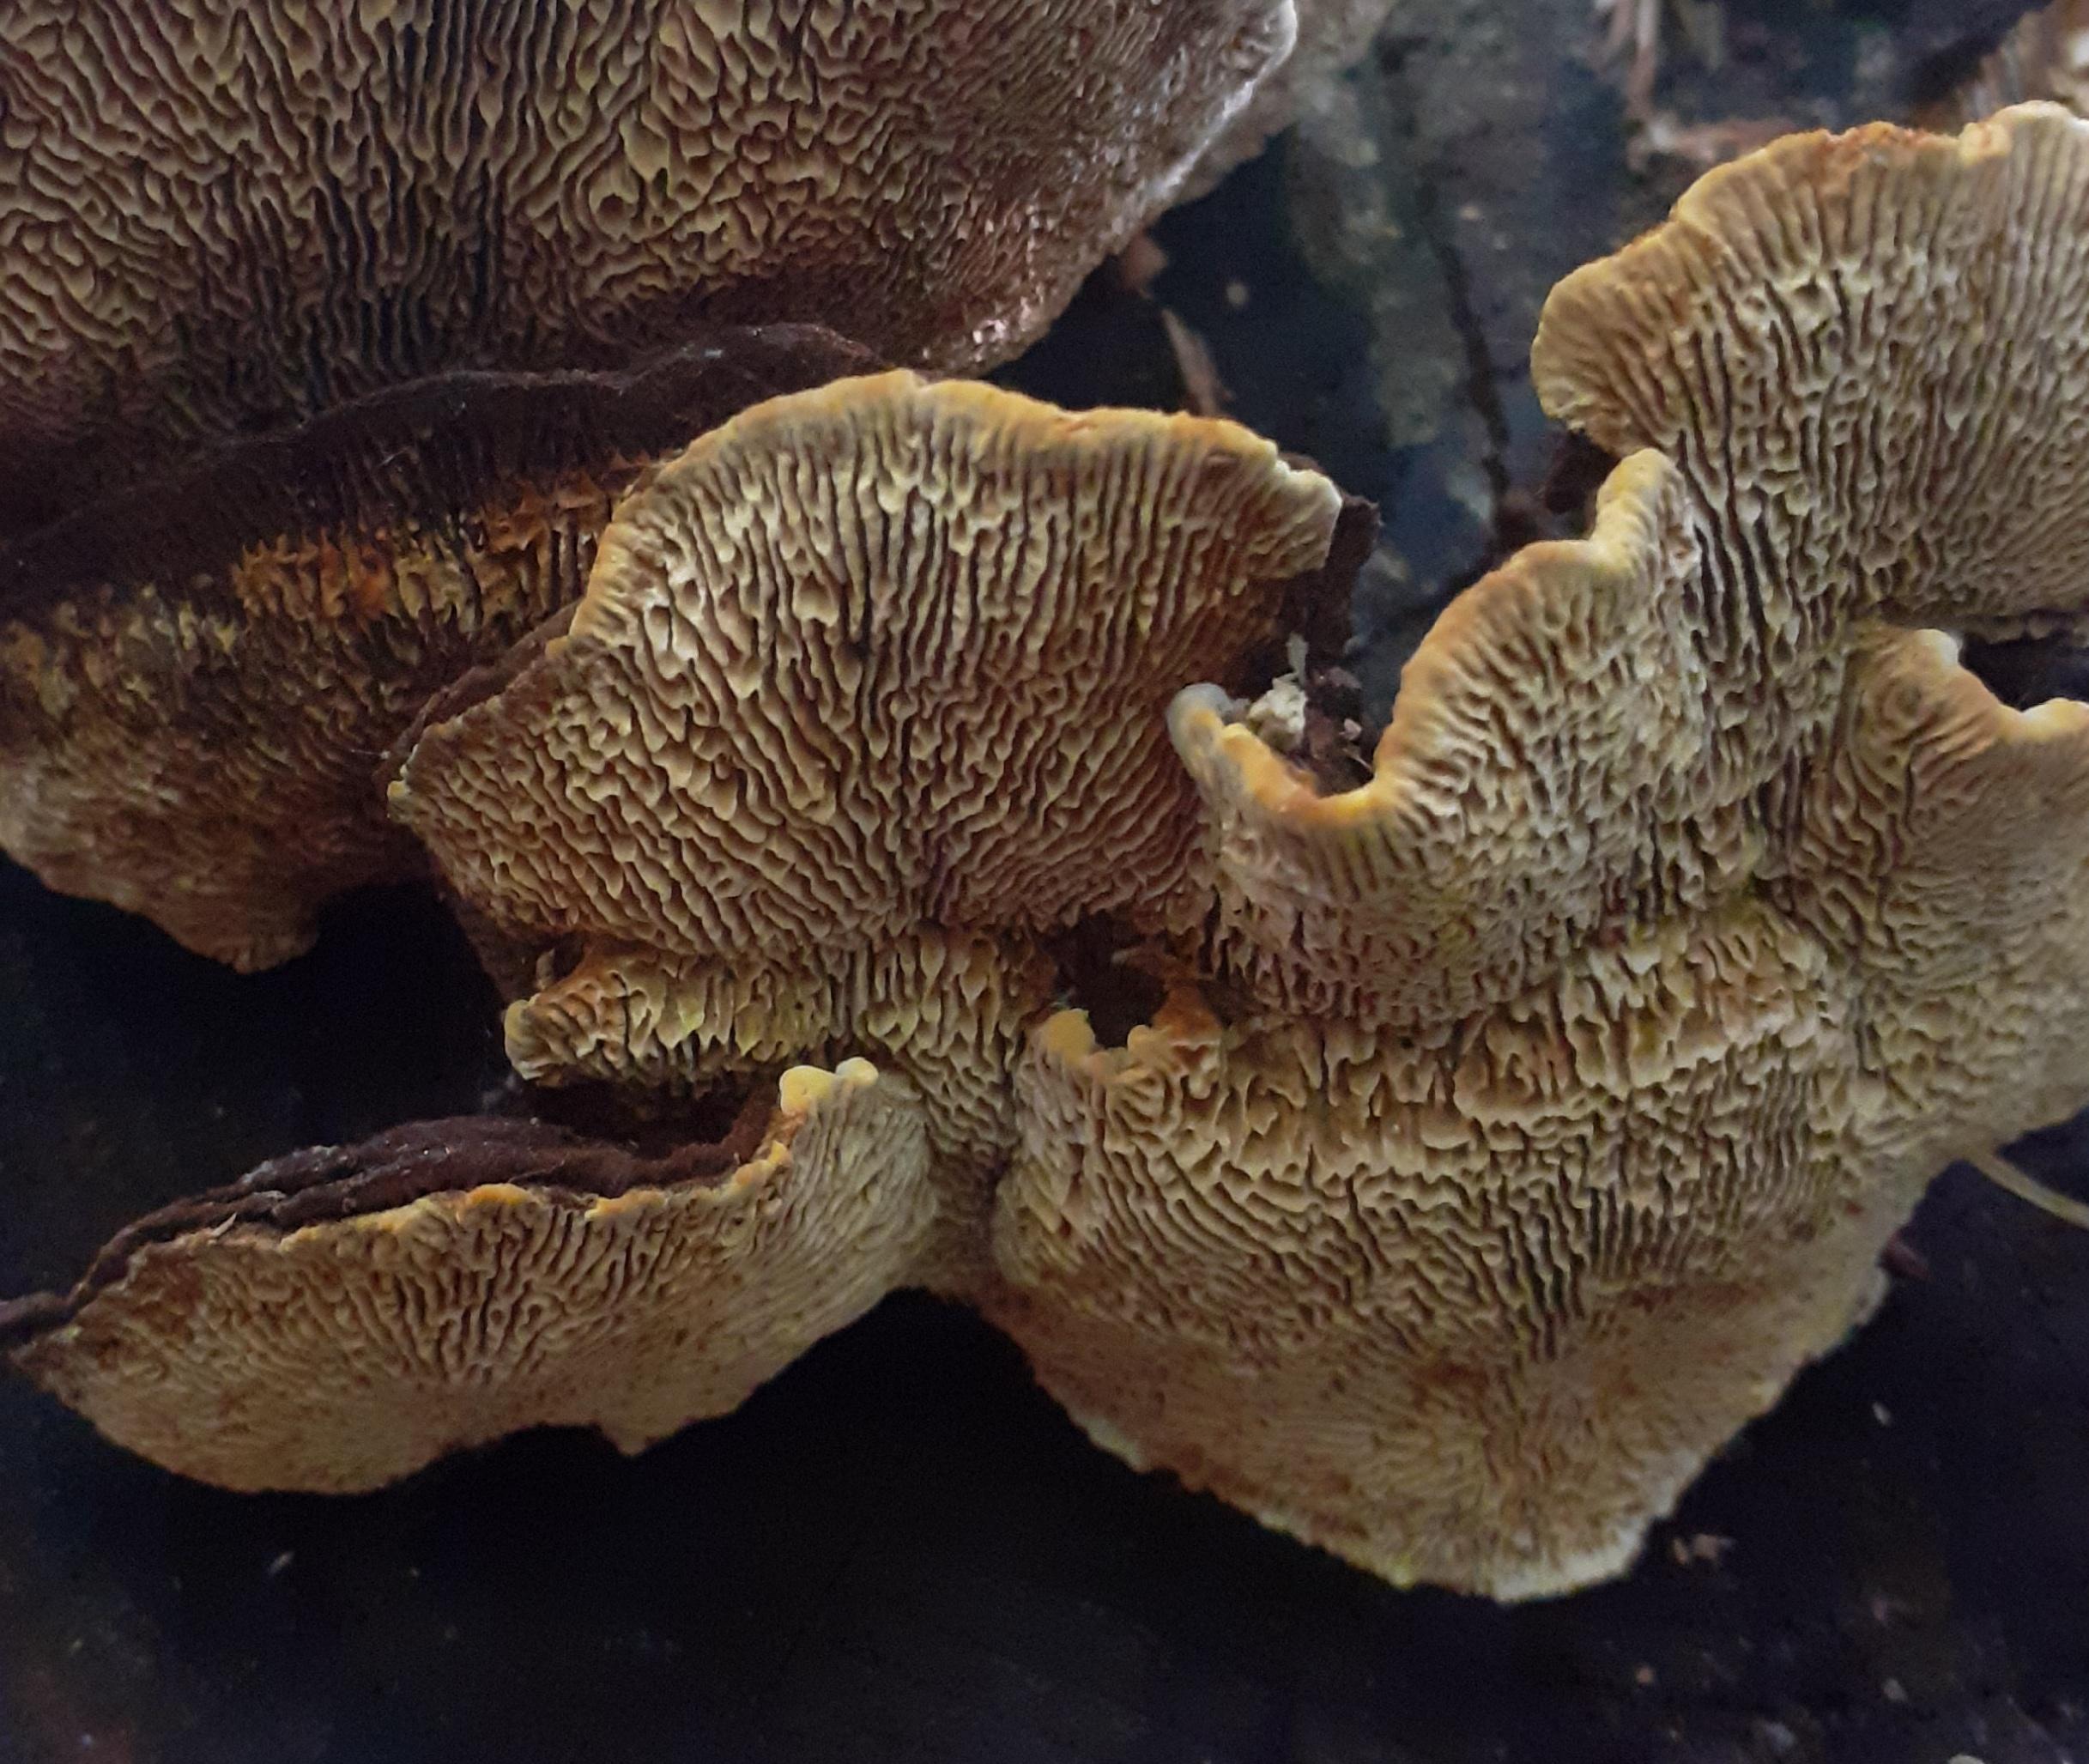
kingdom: Fungi
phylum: Basidiomycota
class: Agaricomycetes
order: Gloeophyllales
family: Gloeophyllaceae
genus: Gloeophyllum
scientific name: Gloeophyllum sepiarium
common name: fyrre-korkhat
